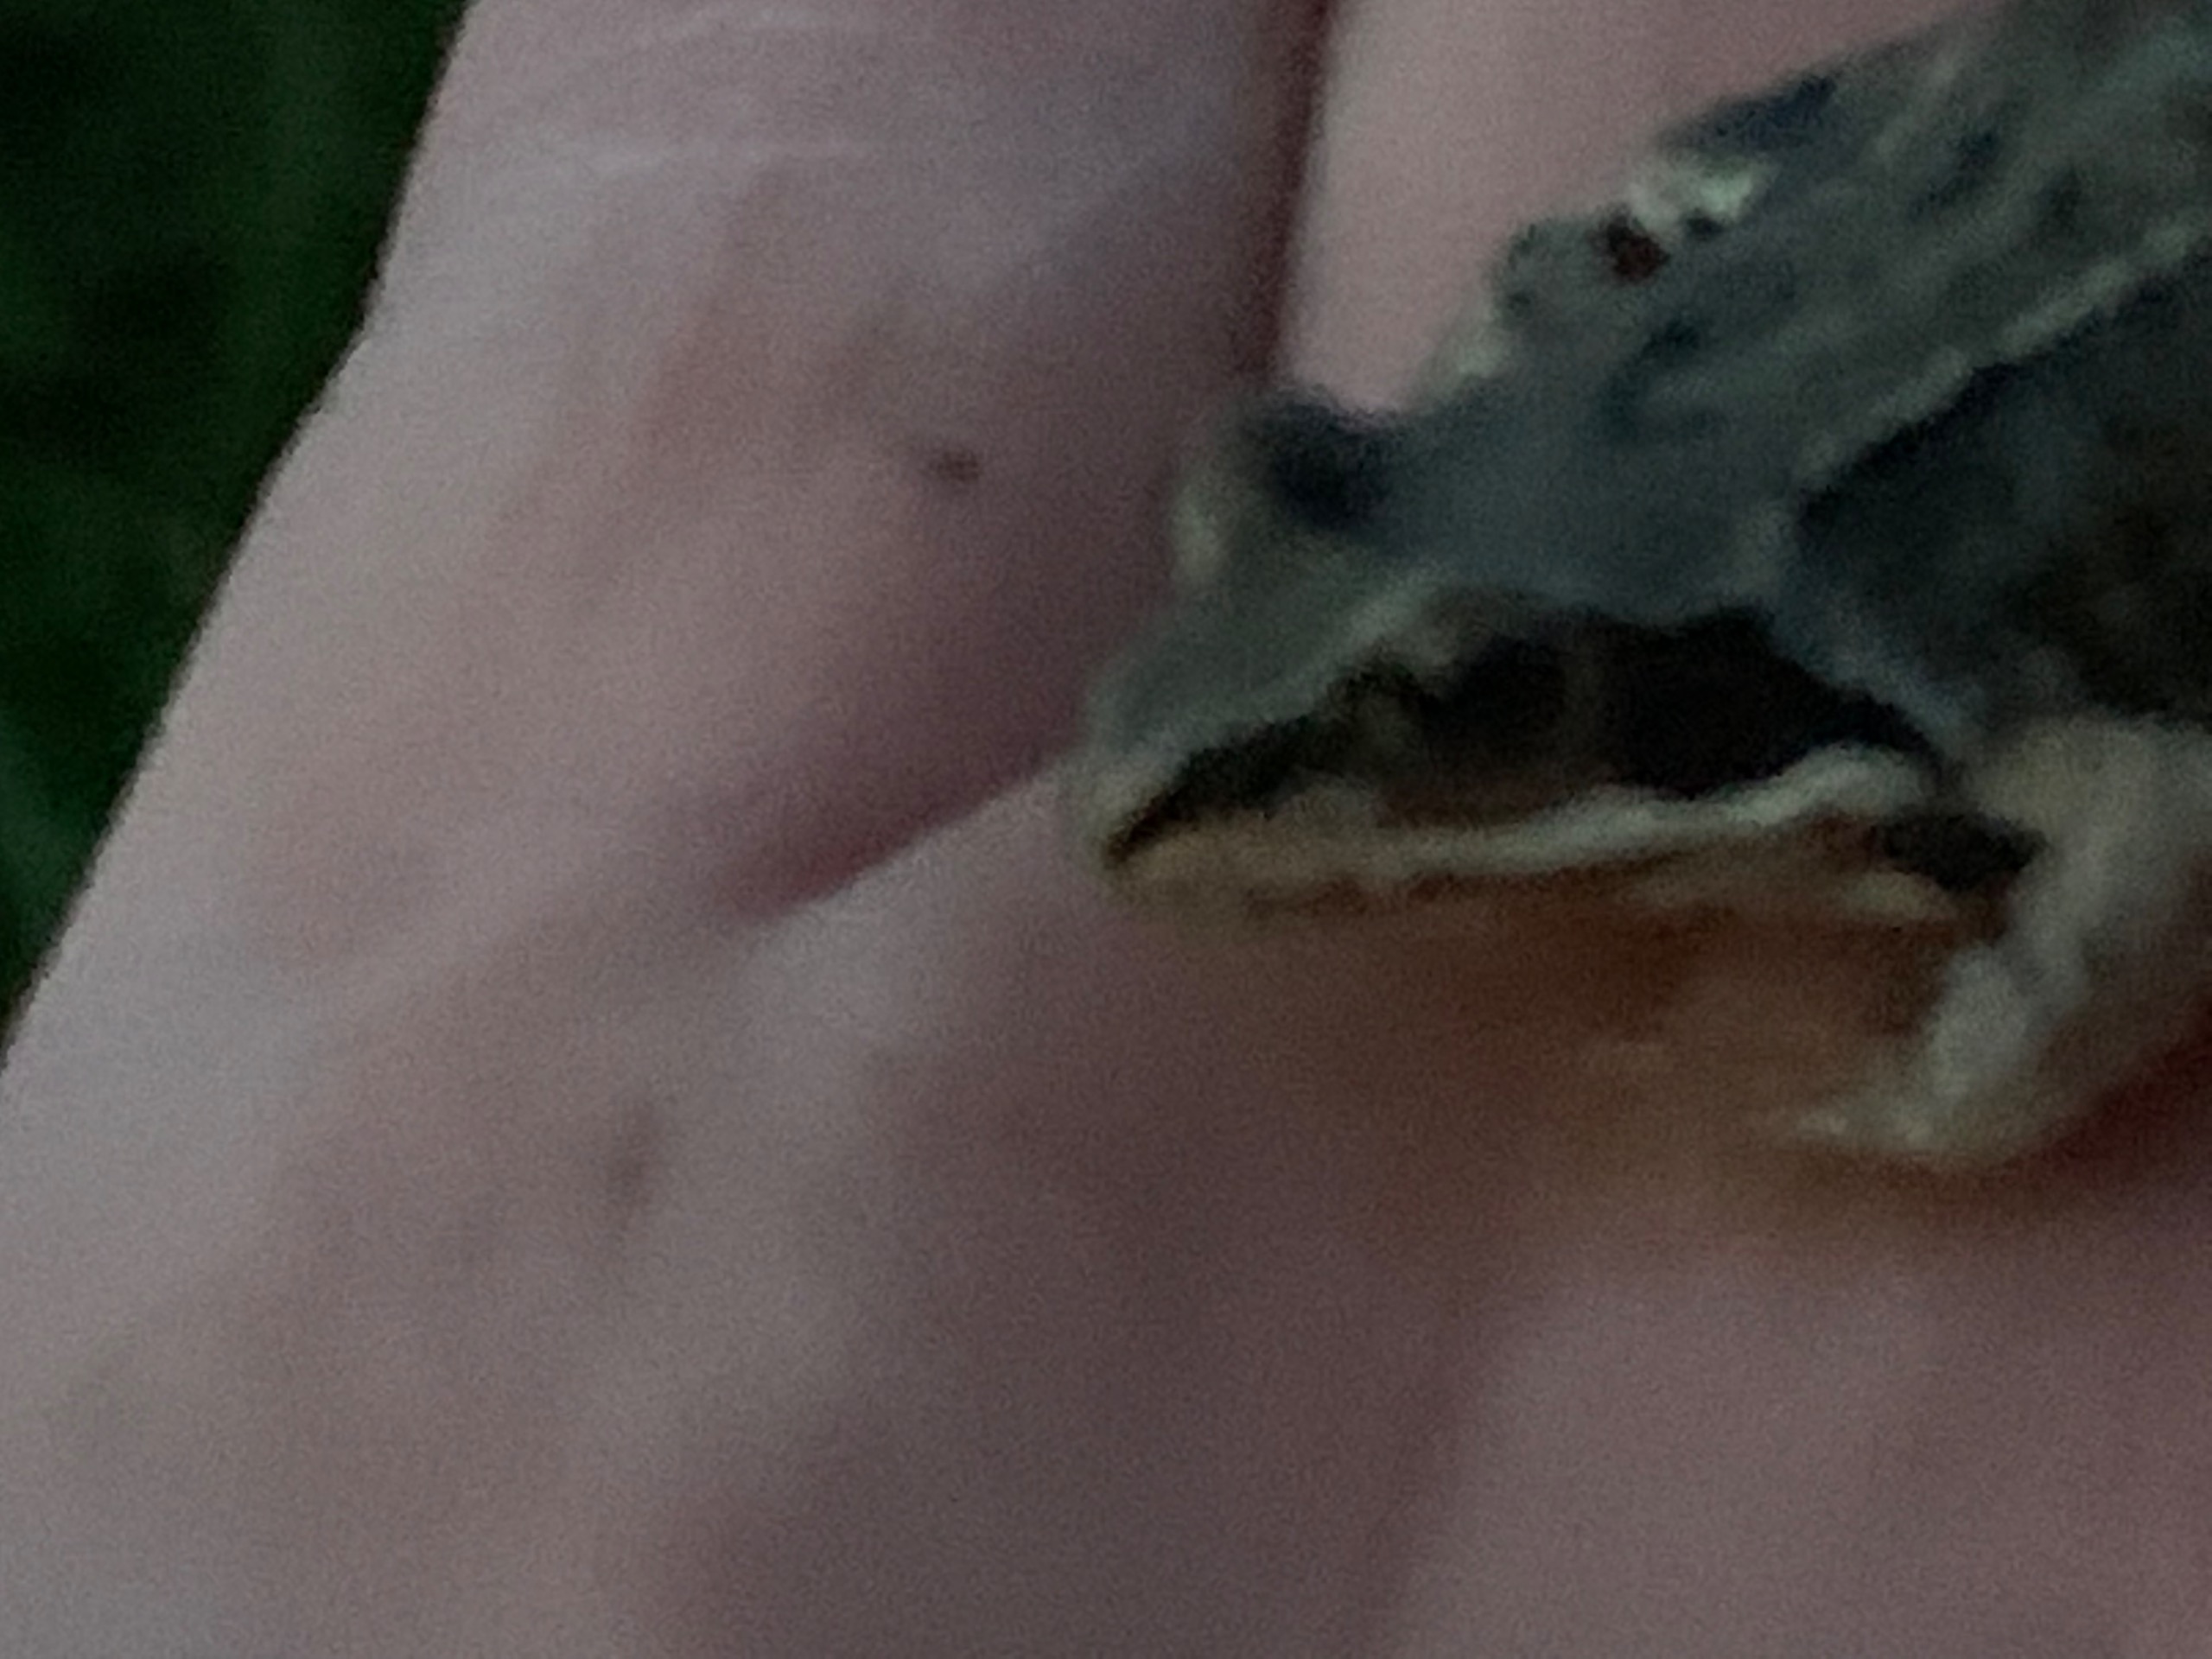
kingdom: Animalia
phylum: Chordata
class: Amphibia
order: Anura
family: Ranidae
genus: Rana
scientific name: Rana arvalis
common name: Spidssnudet frø
